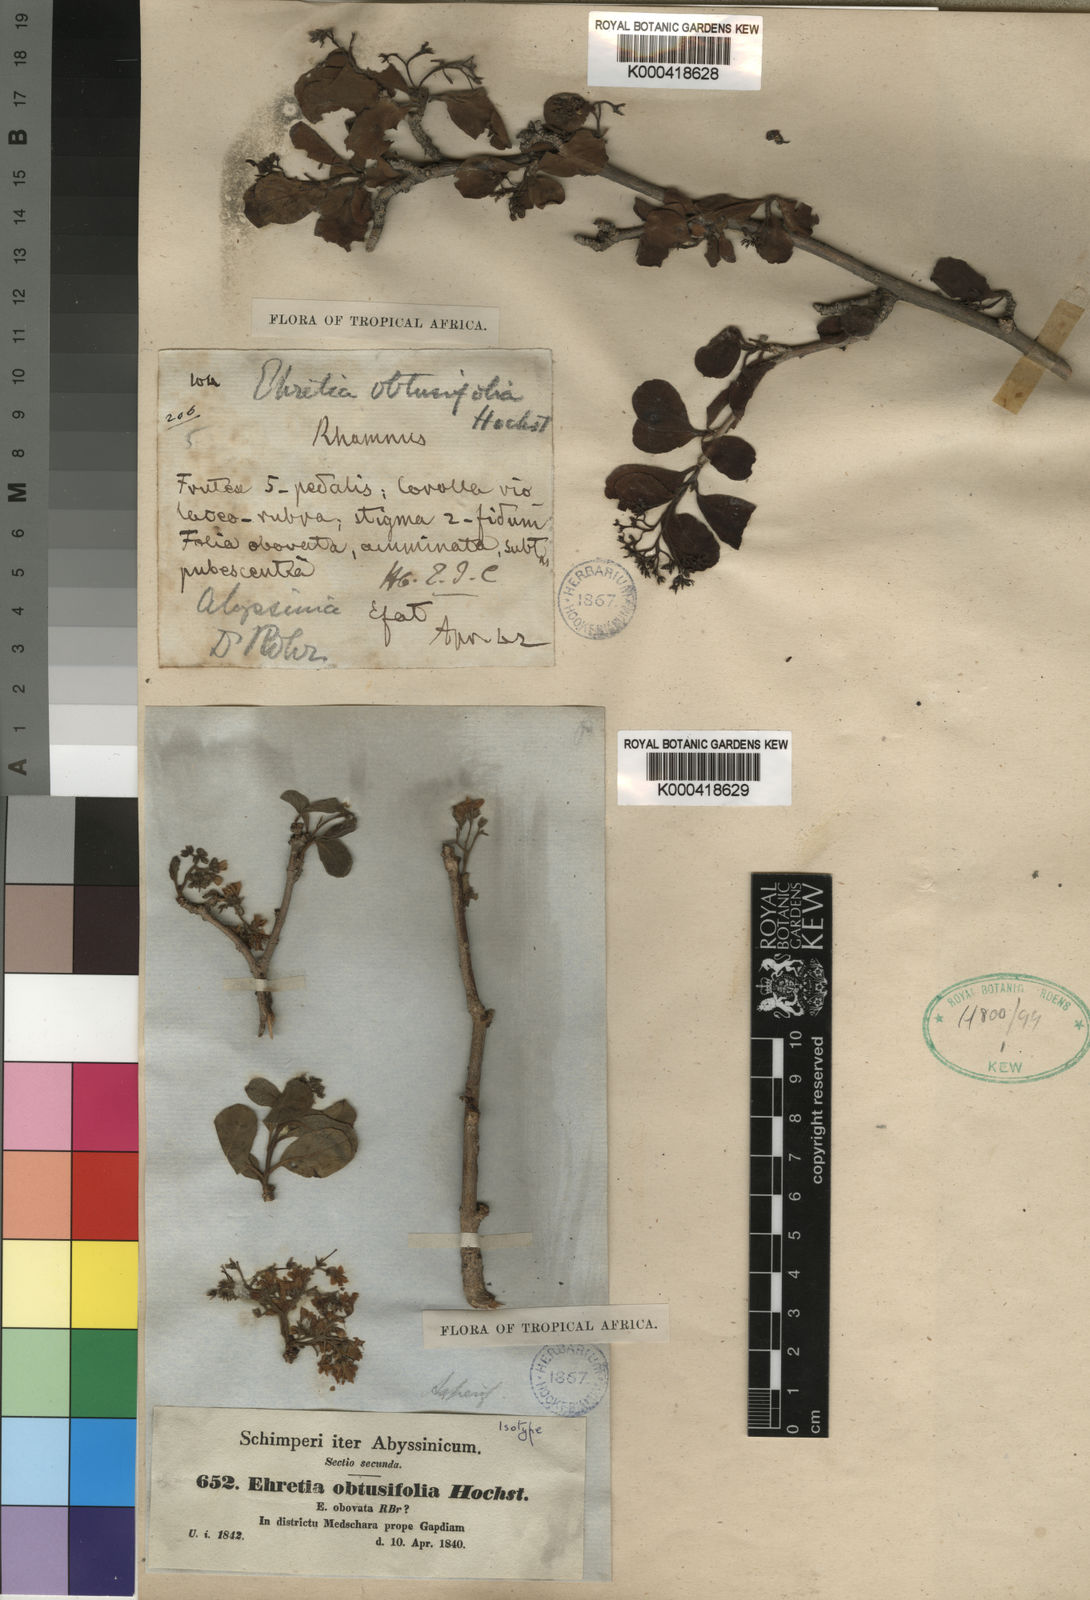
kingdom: Plantae
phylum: Tracheophyta
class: Magnoliopsida
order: Boraginales
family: Ehretiaceae
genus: Ehretia
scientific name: Ehretia obtusifolia
